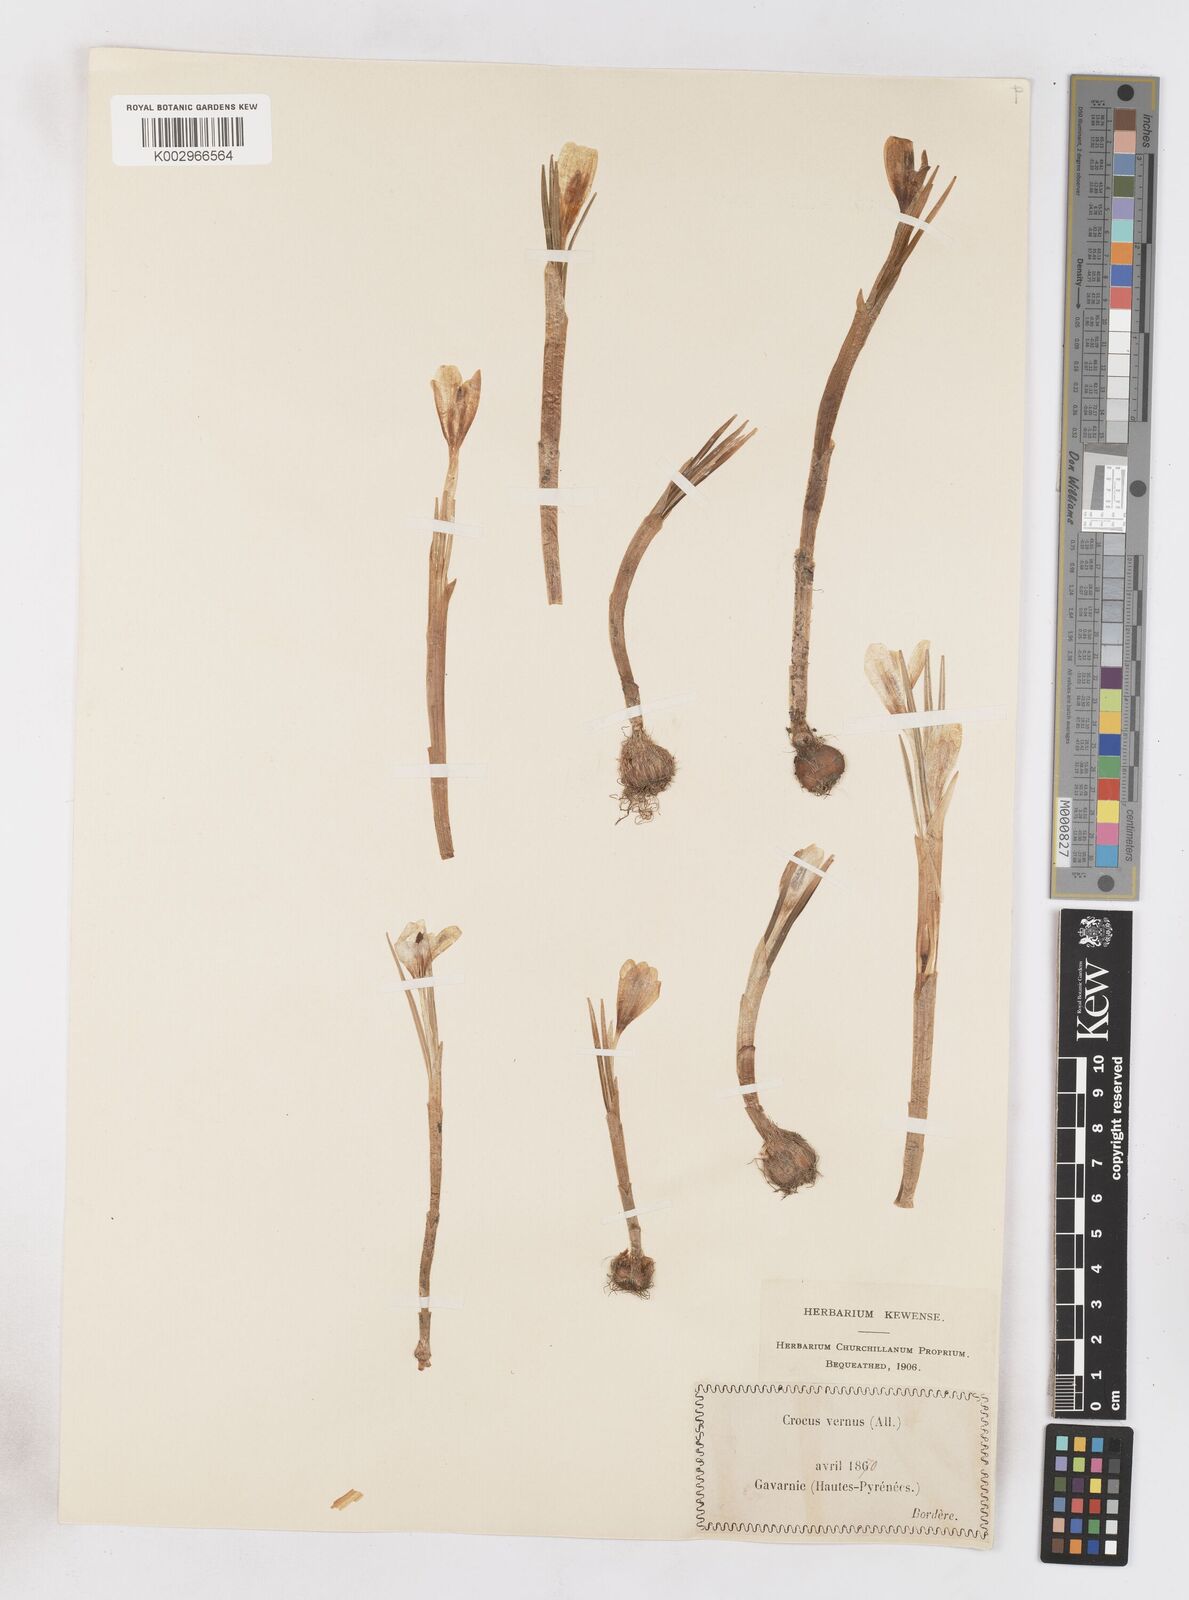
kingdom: Plantae
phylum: Tracheophyta
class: Liliopsida
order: Asparagales
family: Iridaceae
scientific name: Iridaceae
